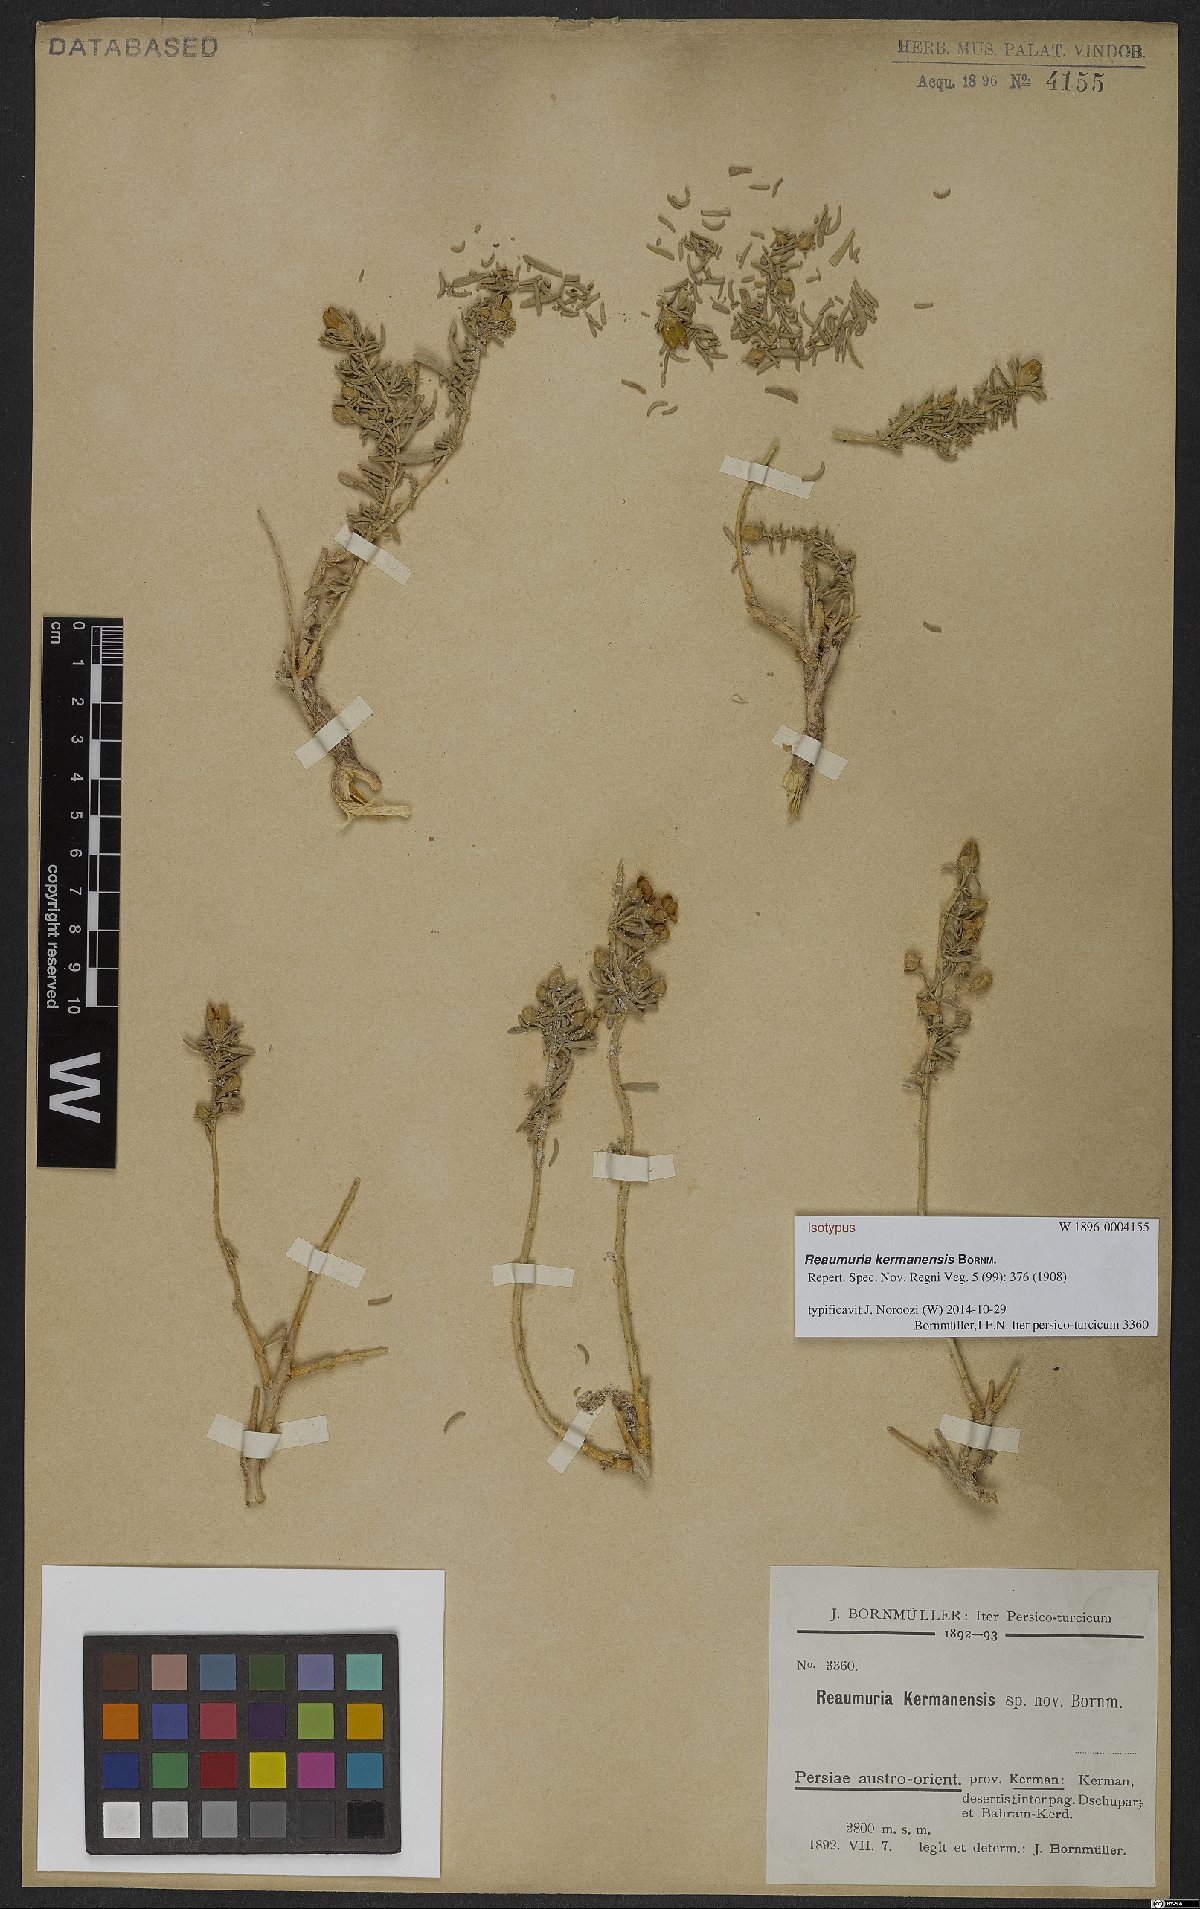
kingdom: Plantae
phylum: Tracheophyta
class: Magnoliopsida
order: Caryophyllales
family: Tamaricaceae
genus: Reaumuria
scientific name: Reaumuria kermanensis
